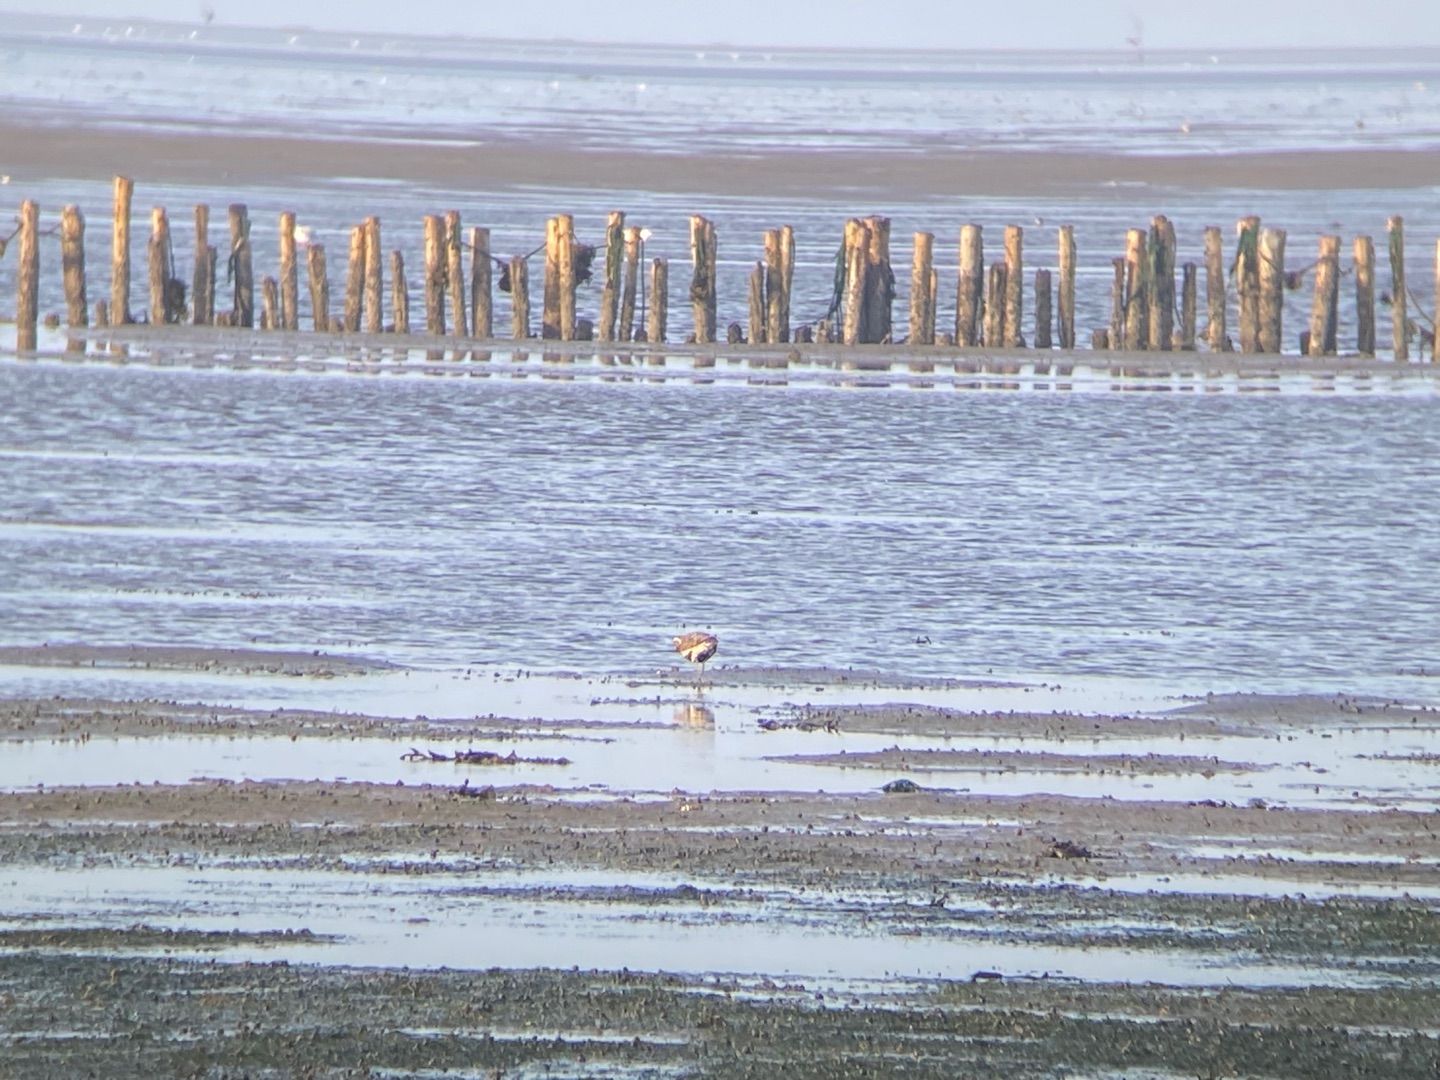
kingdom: Animalia
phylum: Chordata
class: Aves
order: Charadriiformes
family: Charadriidae
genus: Pluvialis
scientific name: Pluvialis apricaria
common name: Hjejle
